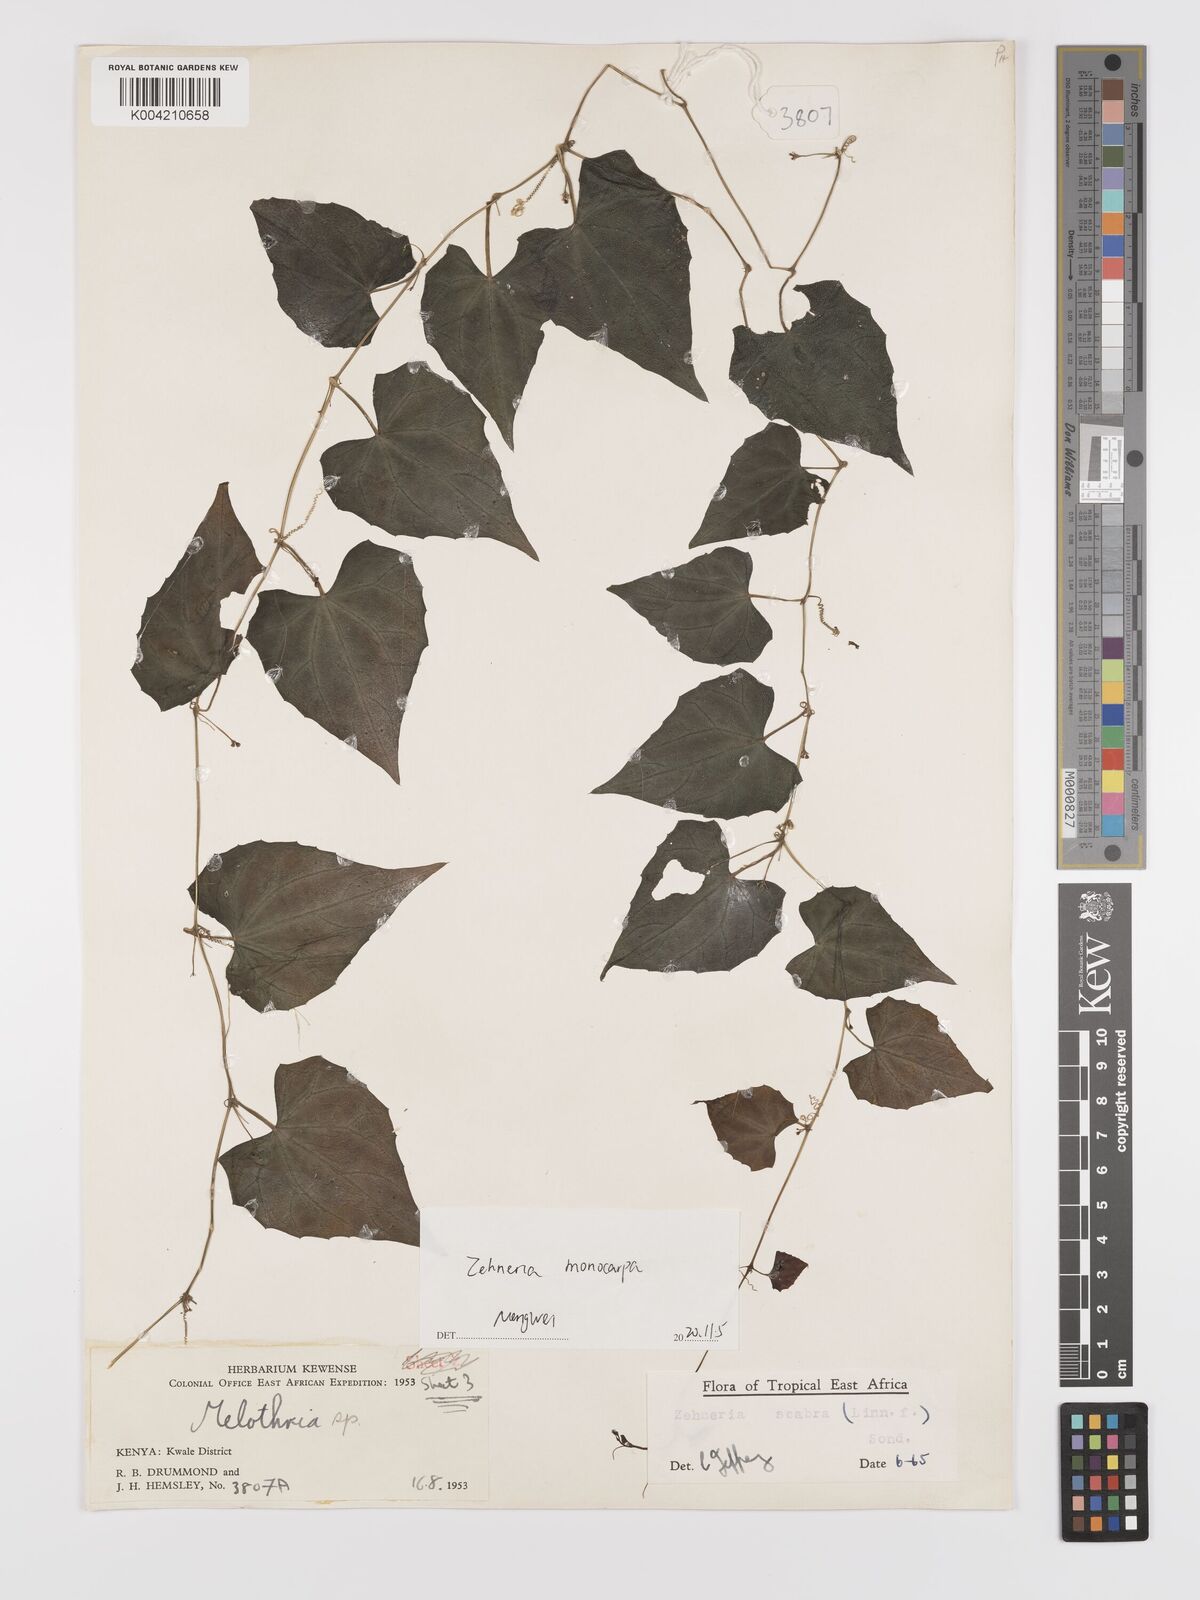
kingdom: Plantae
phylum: Tracheophyta
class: Magnoliopsida
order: Cucurbitales
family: Cucurbitaceae
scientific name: Cucurbitaceae
